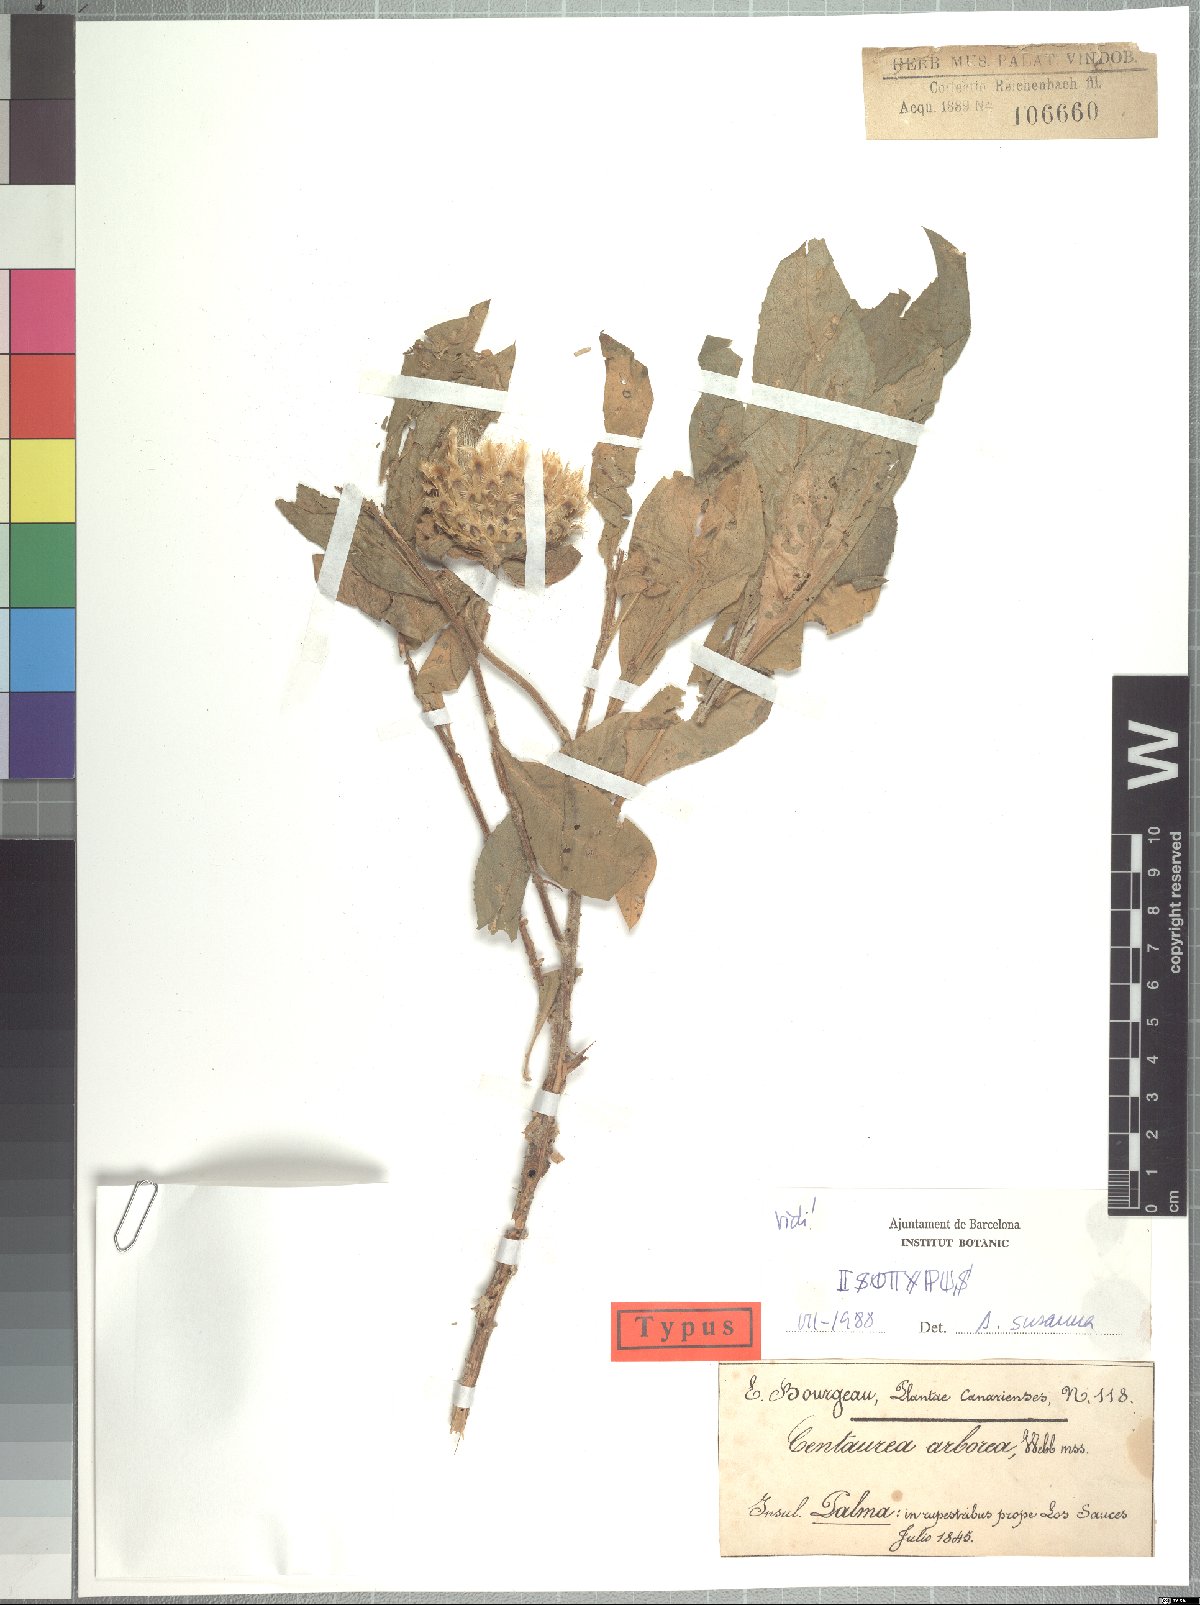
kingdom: Plantae
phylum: Tracheophyta
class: Magnoliopsida
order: Asterales
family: Asteraceae
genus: Cheirolophus
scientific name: Cheirolophus arboreus
